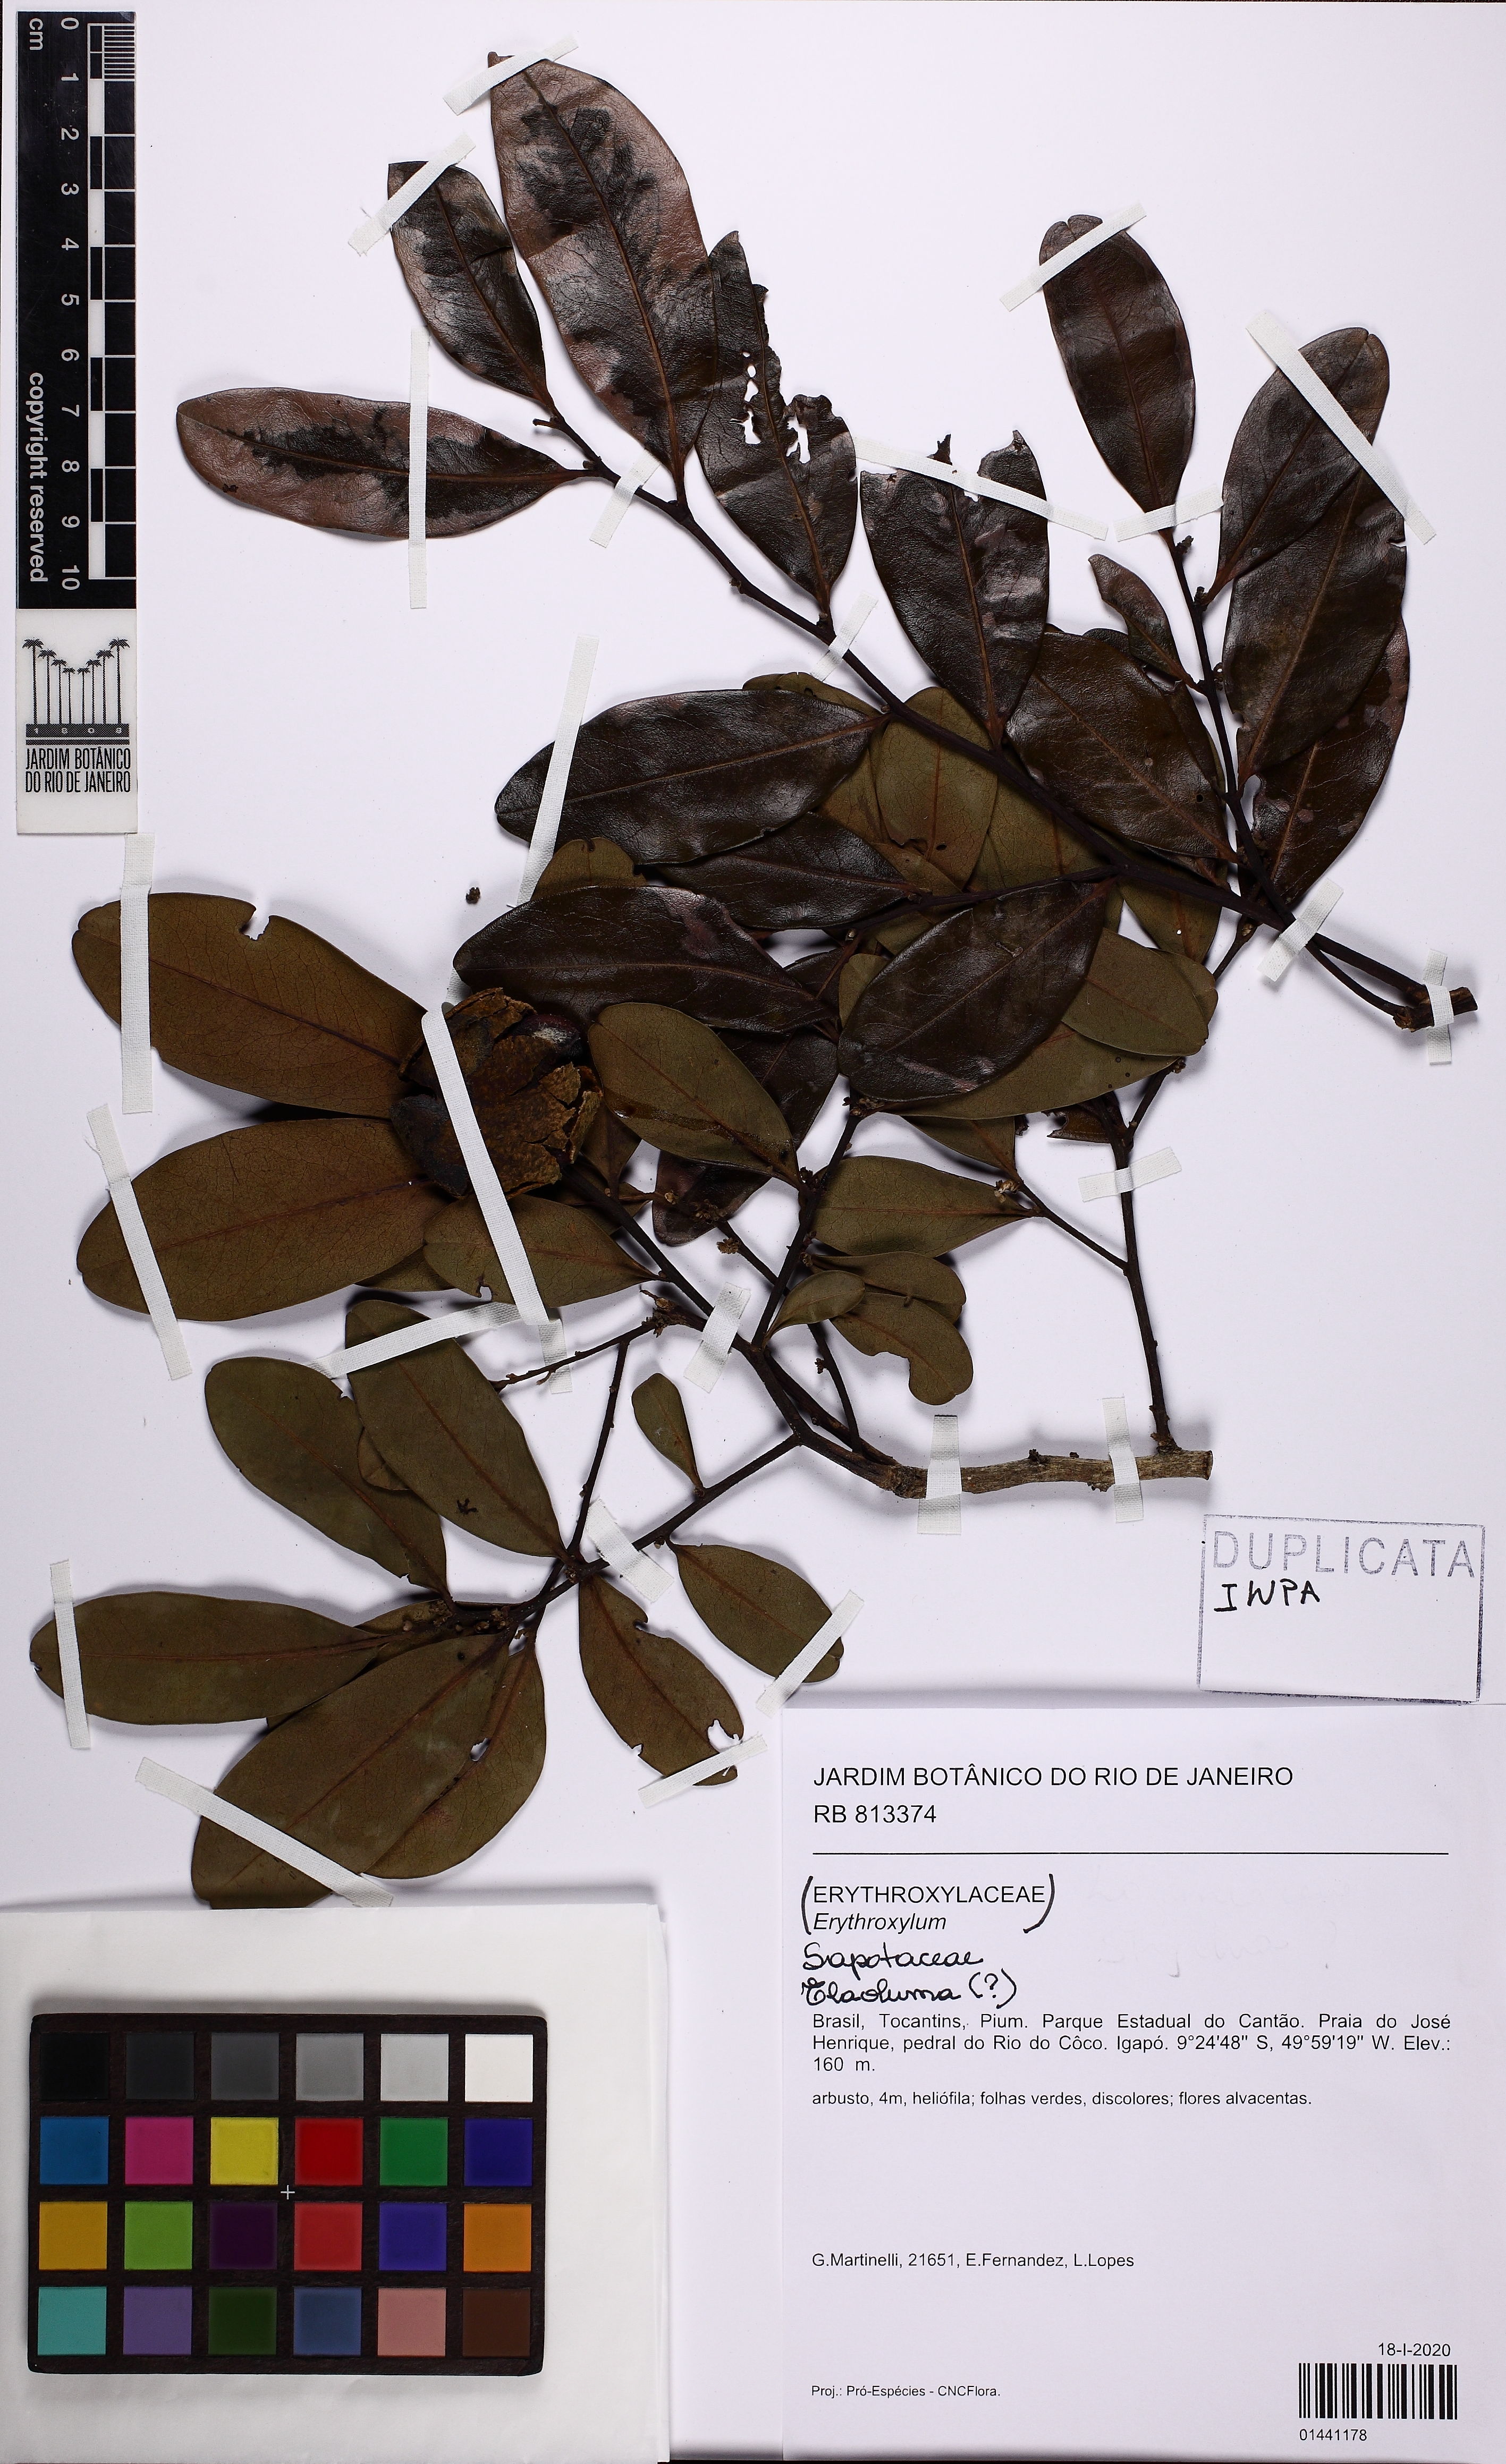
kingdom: Plantae
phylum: Tracheophyta
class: Magnoliopsida
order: Ericales
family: Sapotaceae
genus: Elaeoluma
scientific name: Elaeoluma
